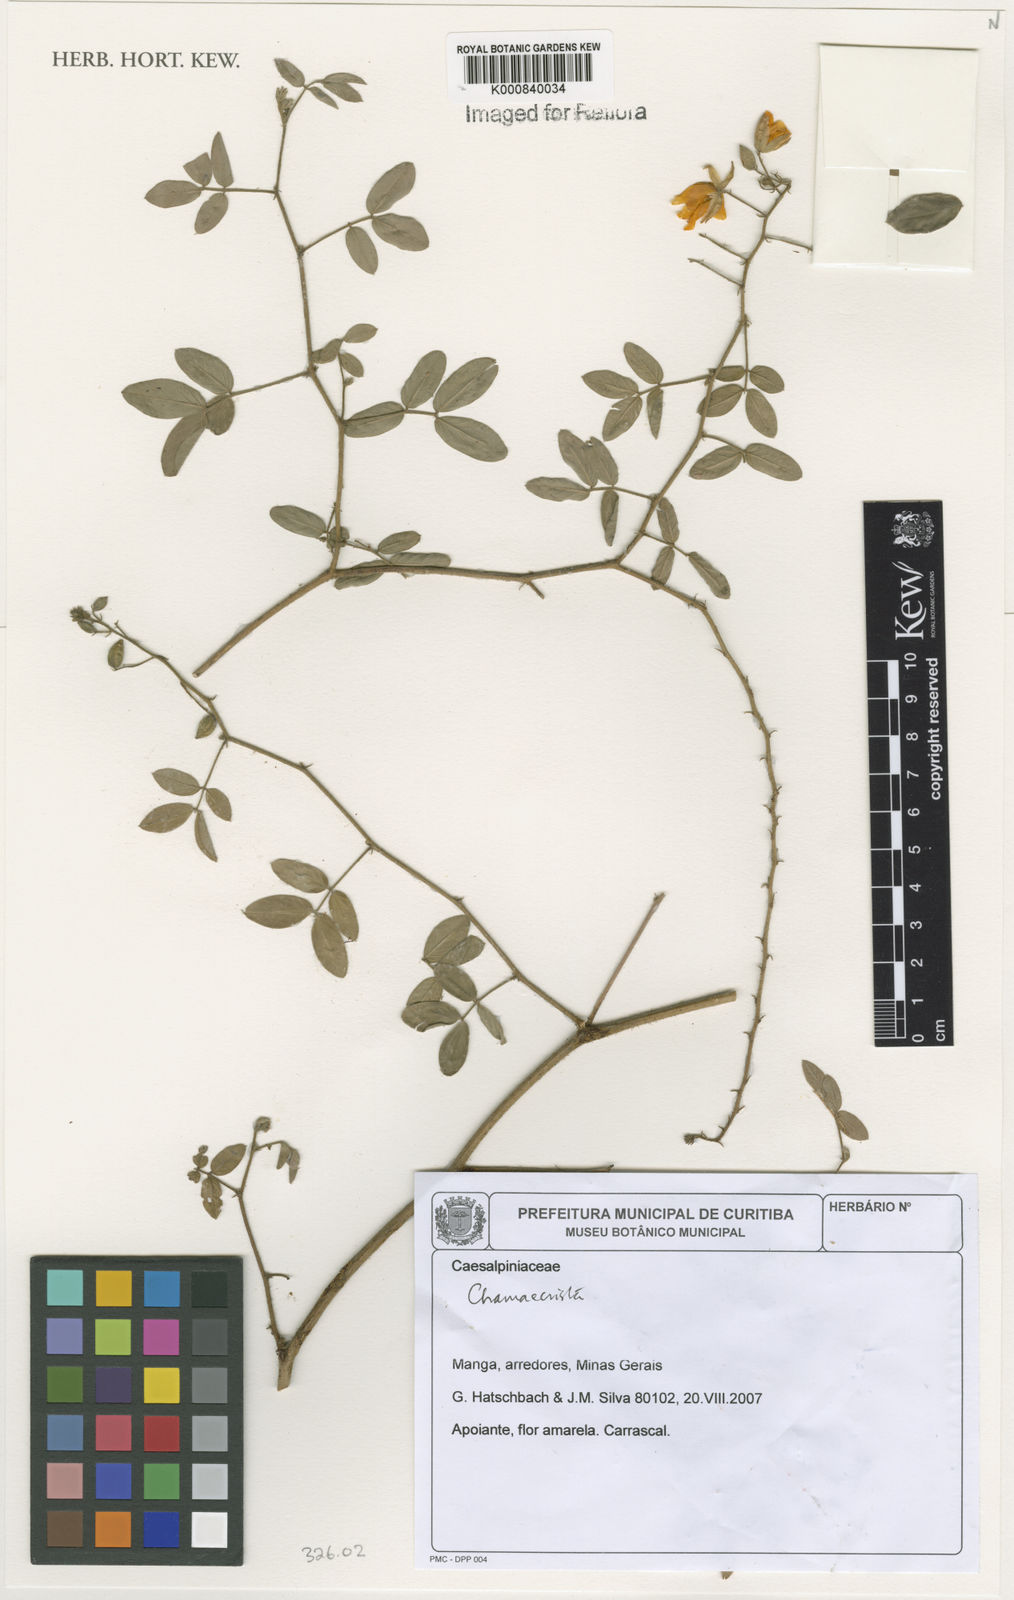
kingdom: Plantae
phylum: Tracheophyta
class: Magnoliopsida
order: Fabales
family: Fabaceae
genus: Chamaecrista
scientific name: Chamaecrista
